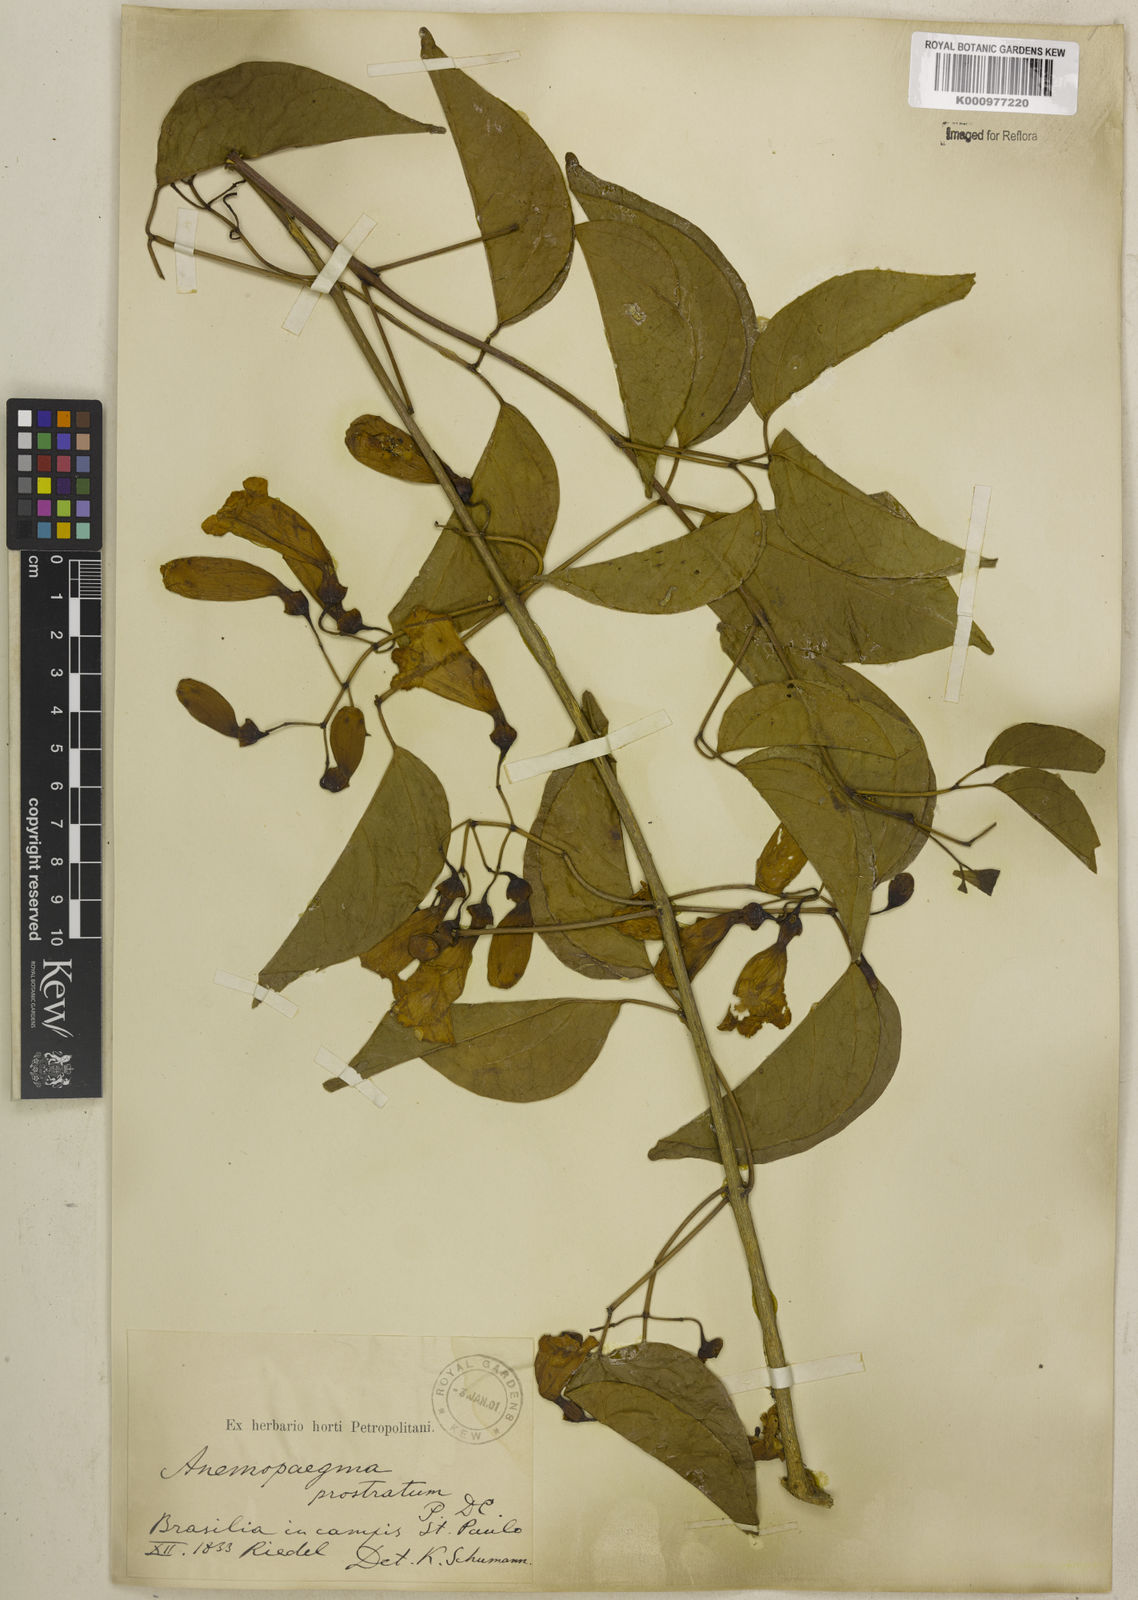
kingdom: Plantae
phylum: Tracheophyta
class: Magnoliopsida
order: Lamiales
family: Bignoniaceae
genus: Anemopaegma
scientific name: Anemopaegma prostratum
